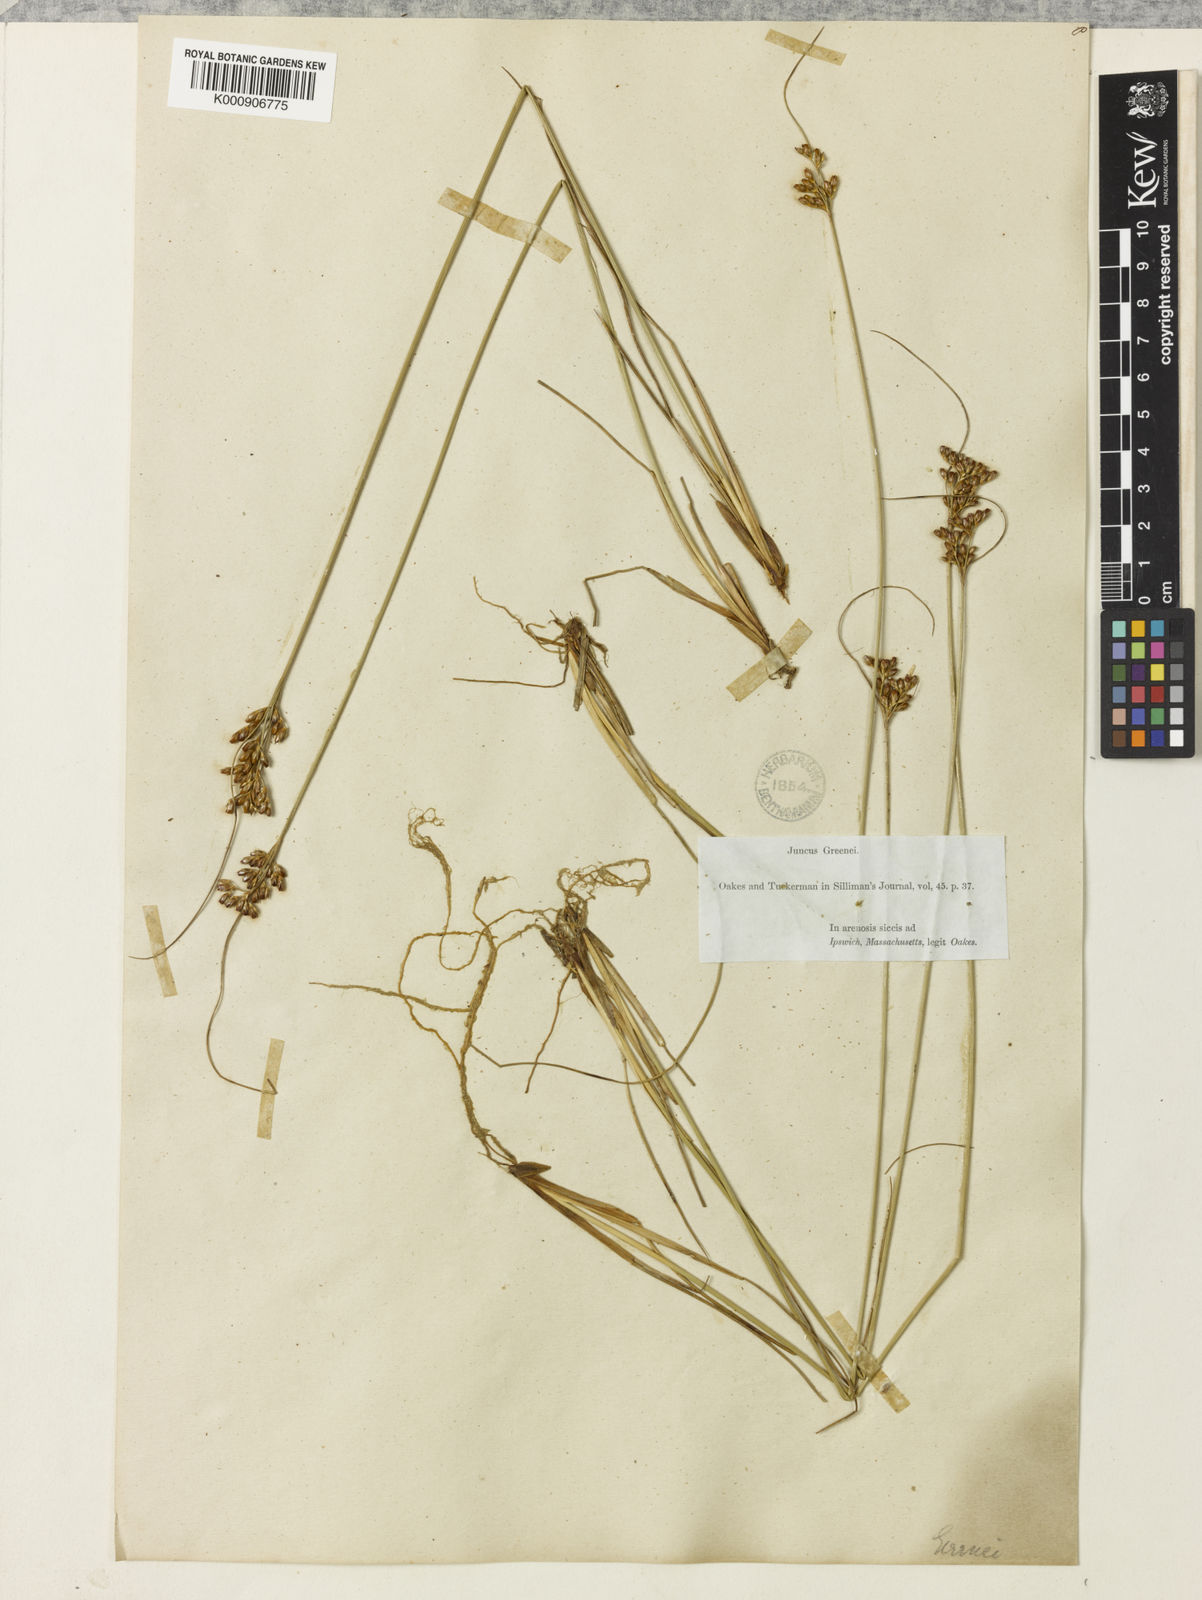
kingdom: Plantae
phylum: Tracheophyta
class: Liliopsida
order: Poales
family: Juncaceae
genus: Juncus
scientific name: Juncus greenei
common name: Greene's rush
